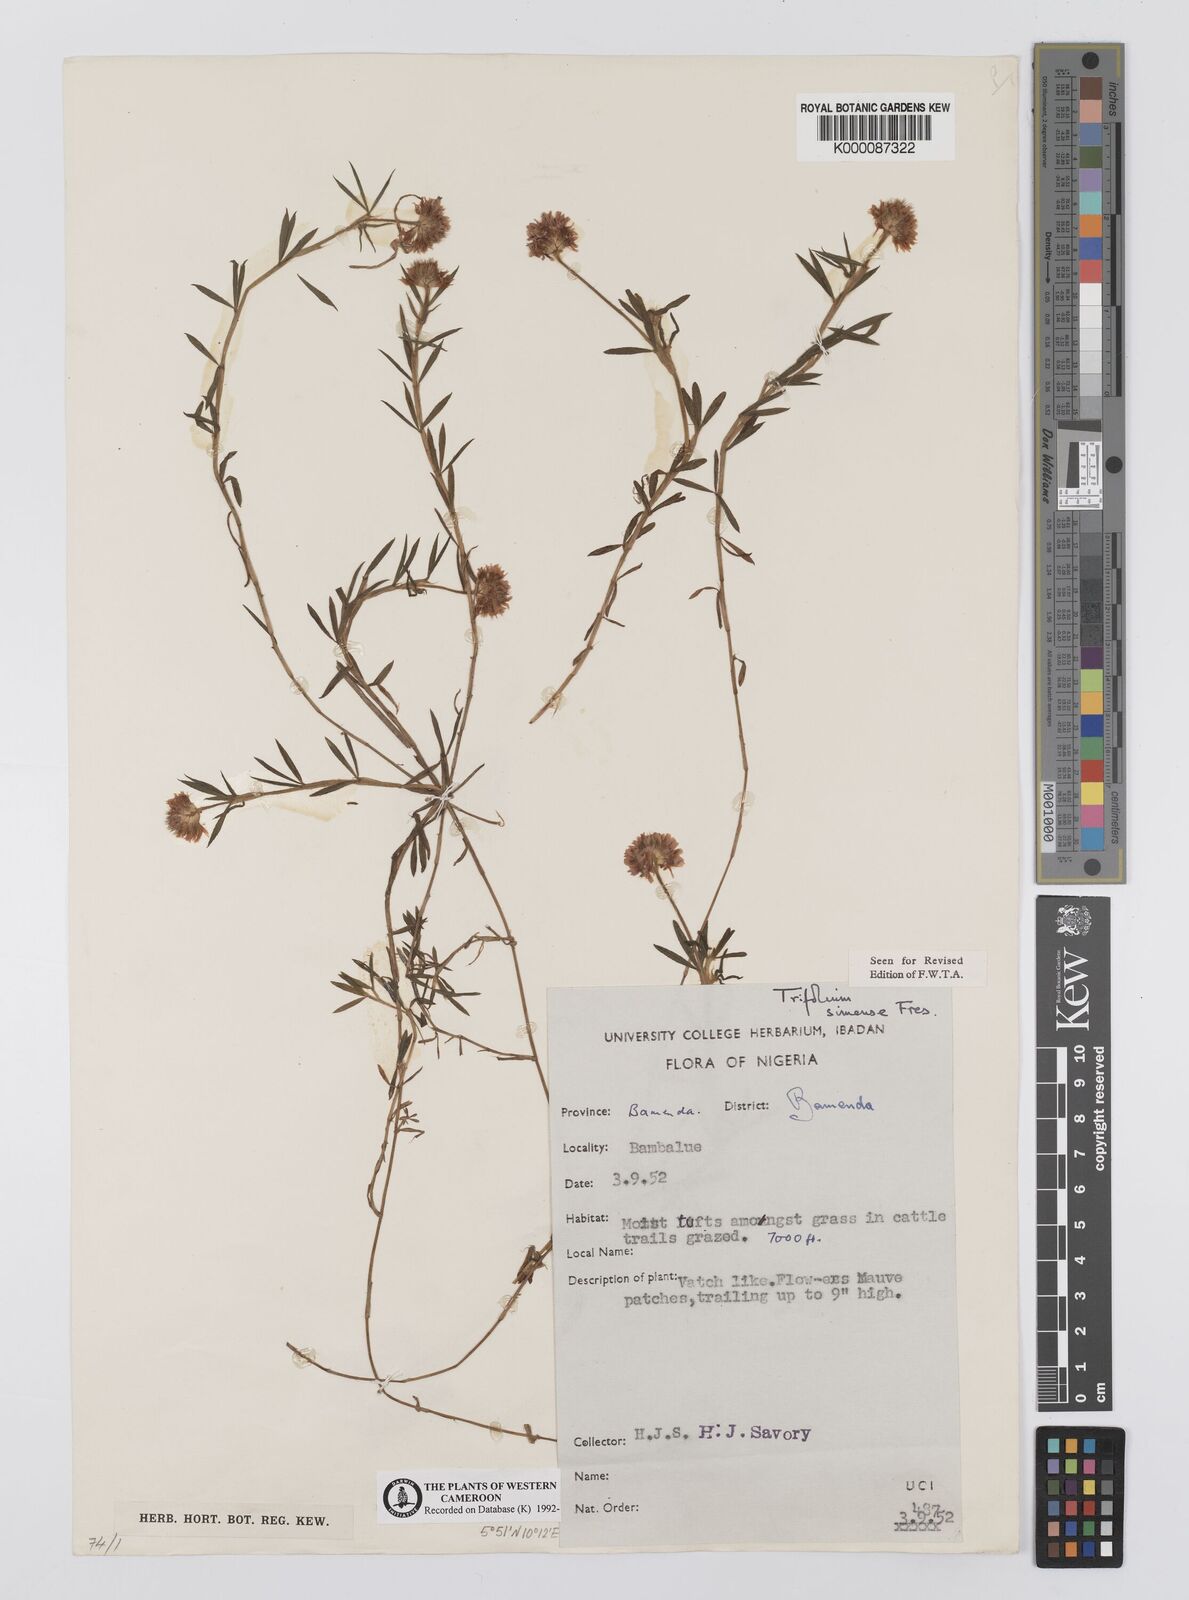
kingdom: Plantae
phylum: Tracheophyta
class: Magnoliopsida
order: Fabales
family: Fabaceae
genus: Trifolium
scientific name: Trifolium simense
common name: Simen clover
